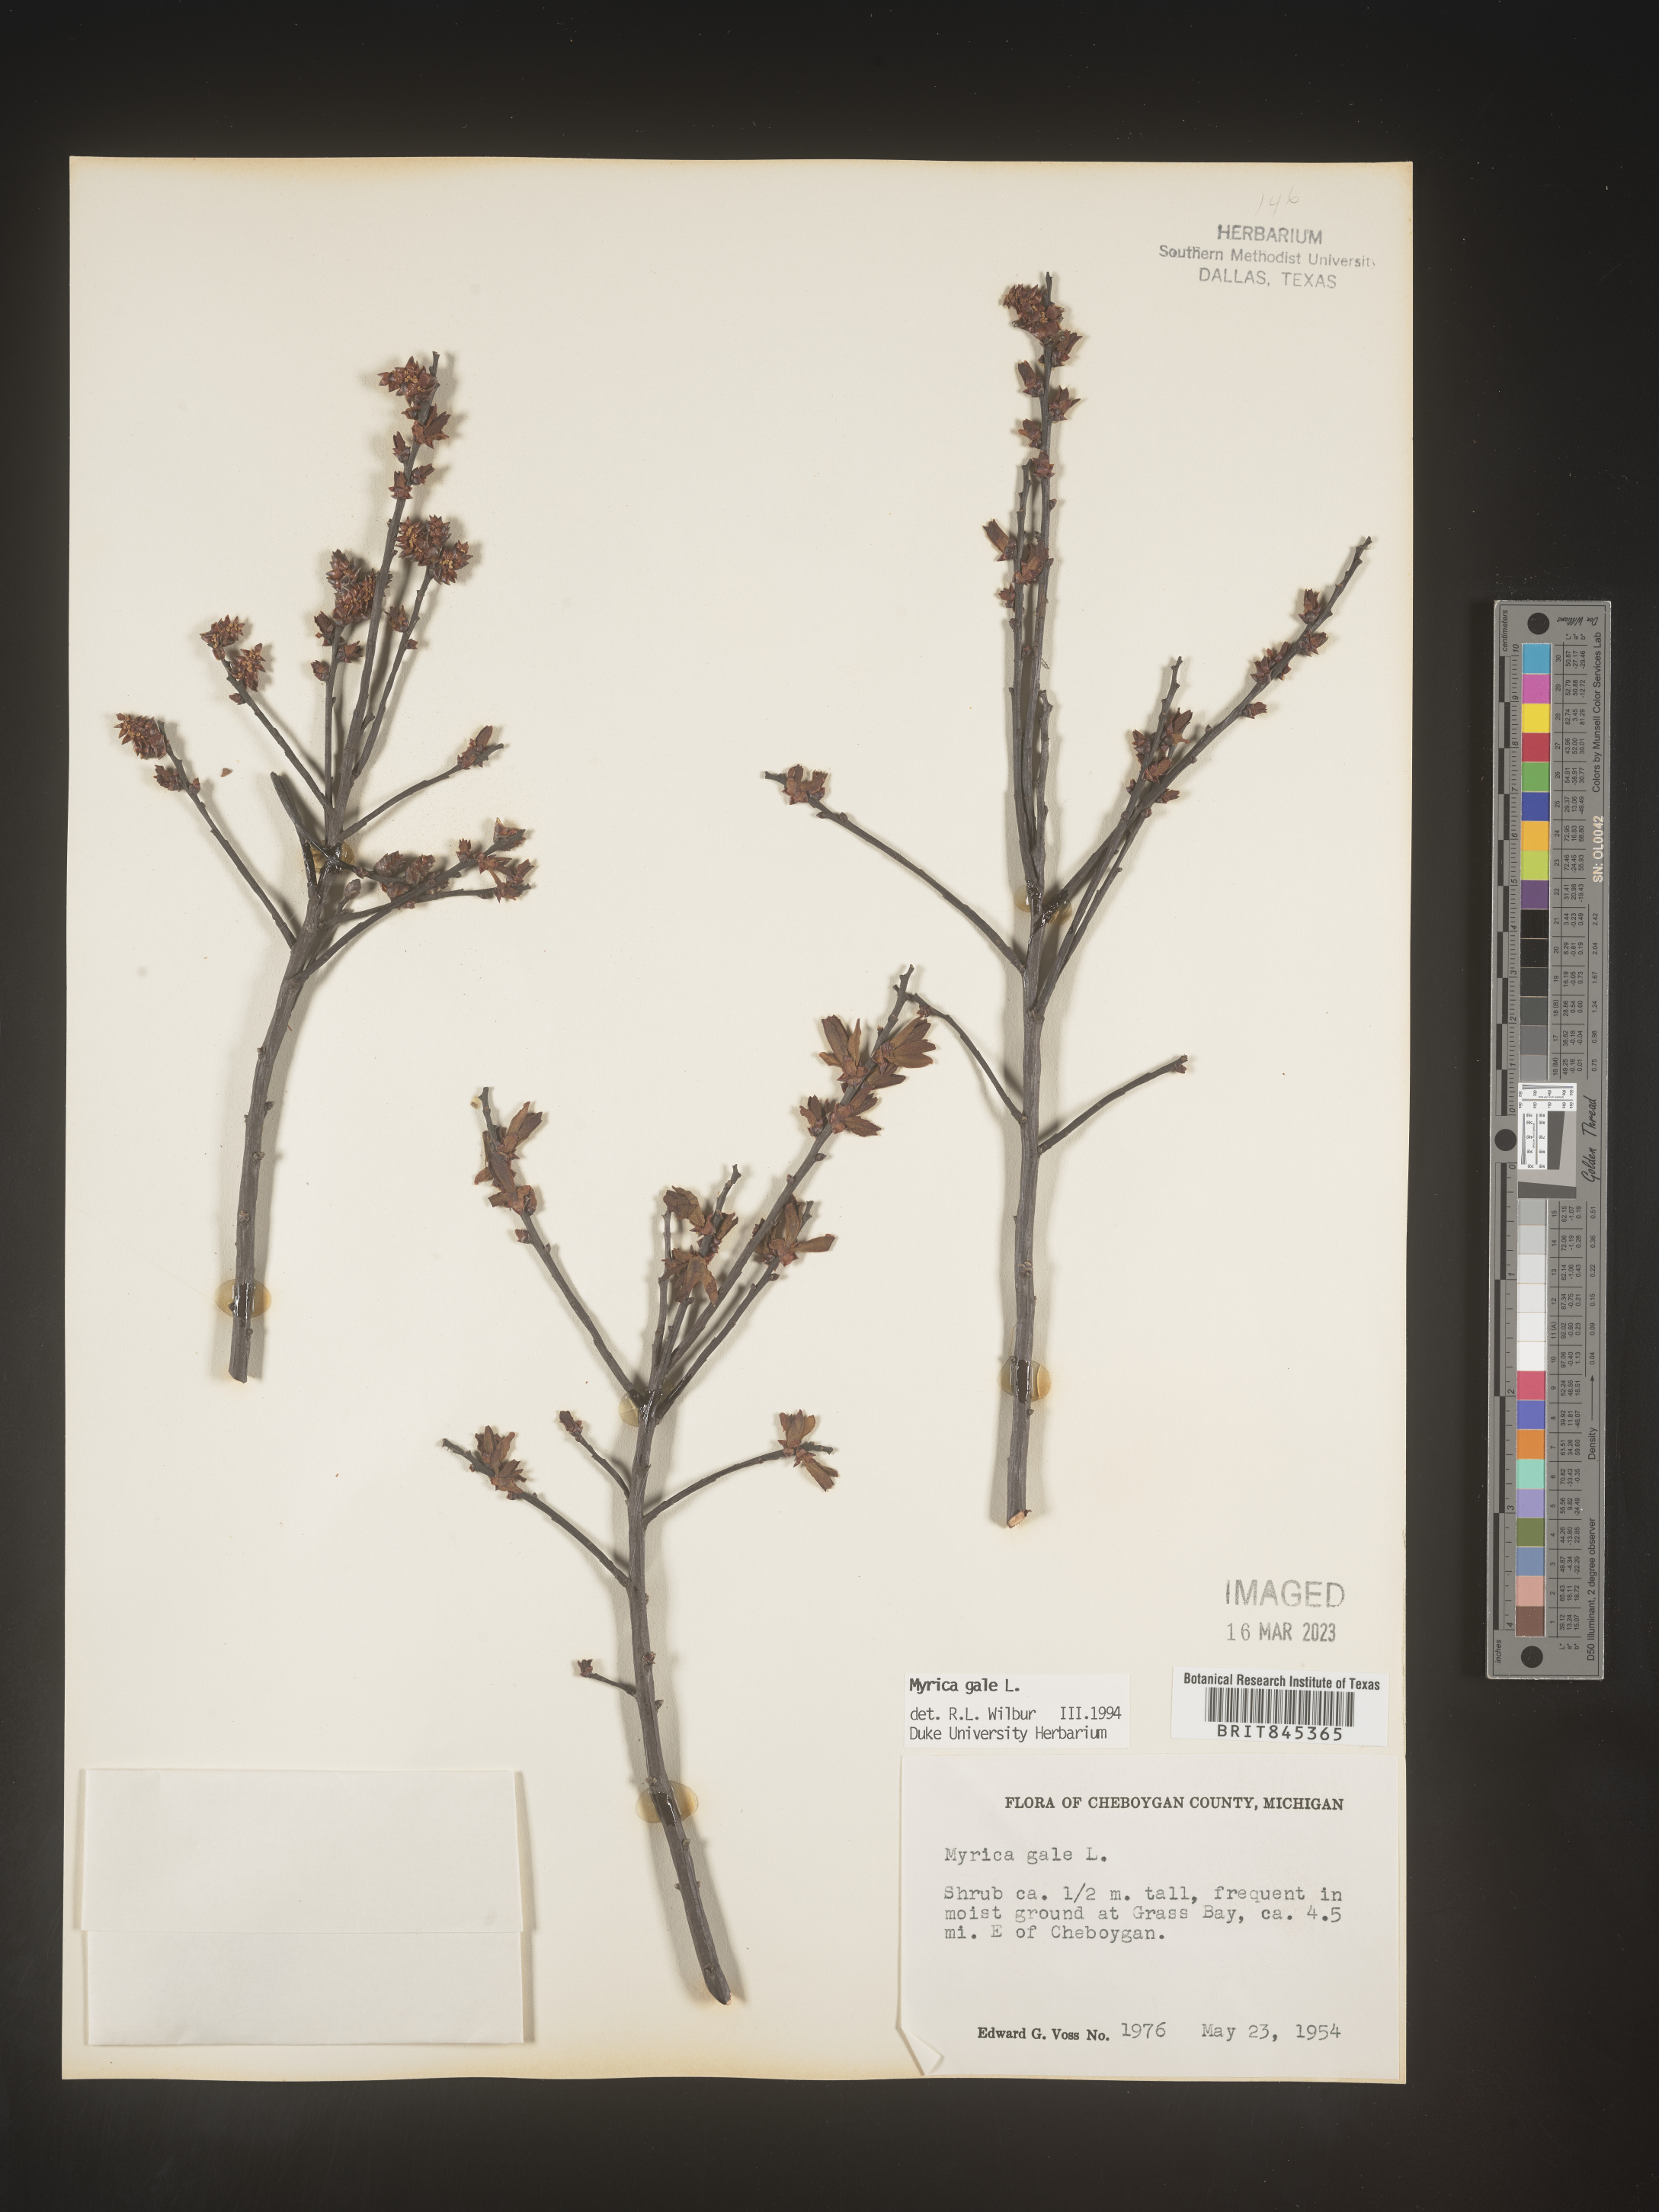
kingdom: Plantae
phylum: Tracheophyta
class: Magnoliopsida
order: Fagales
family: Myricaceae
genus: Myrica
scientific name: Myrica gale
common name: Sweet gale
